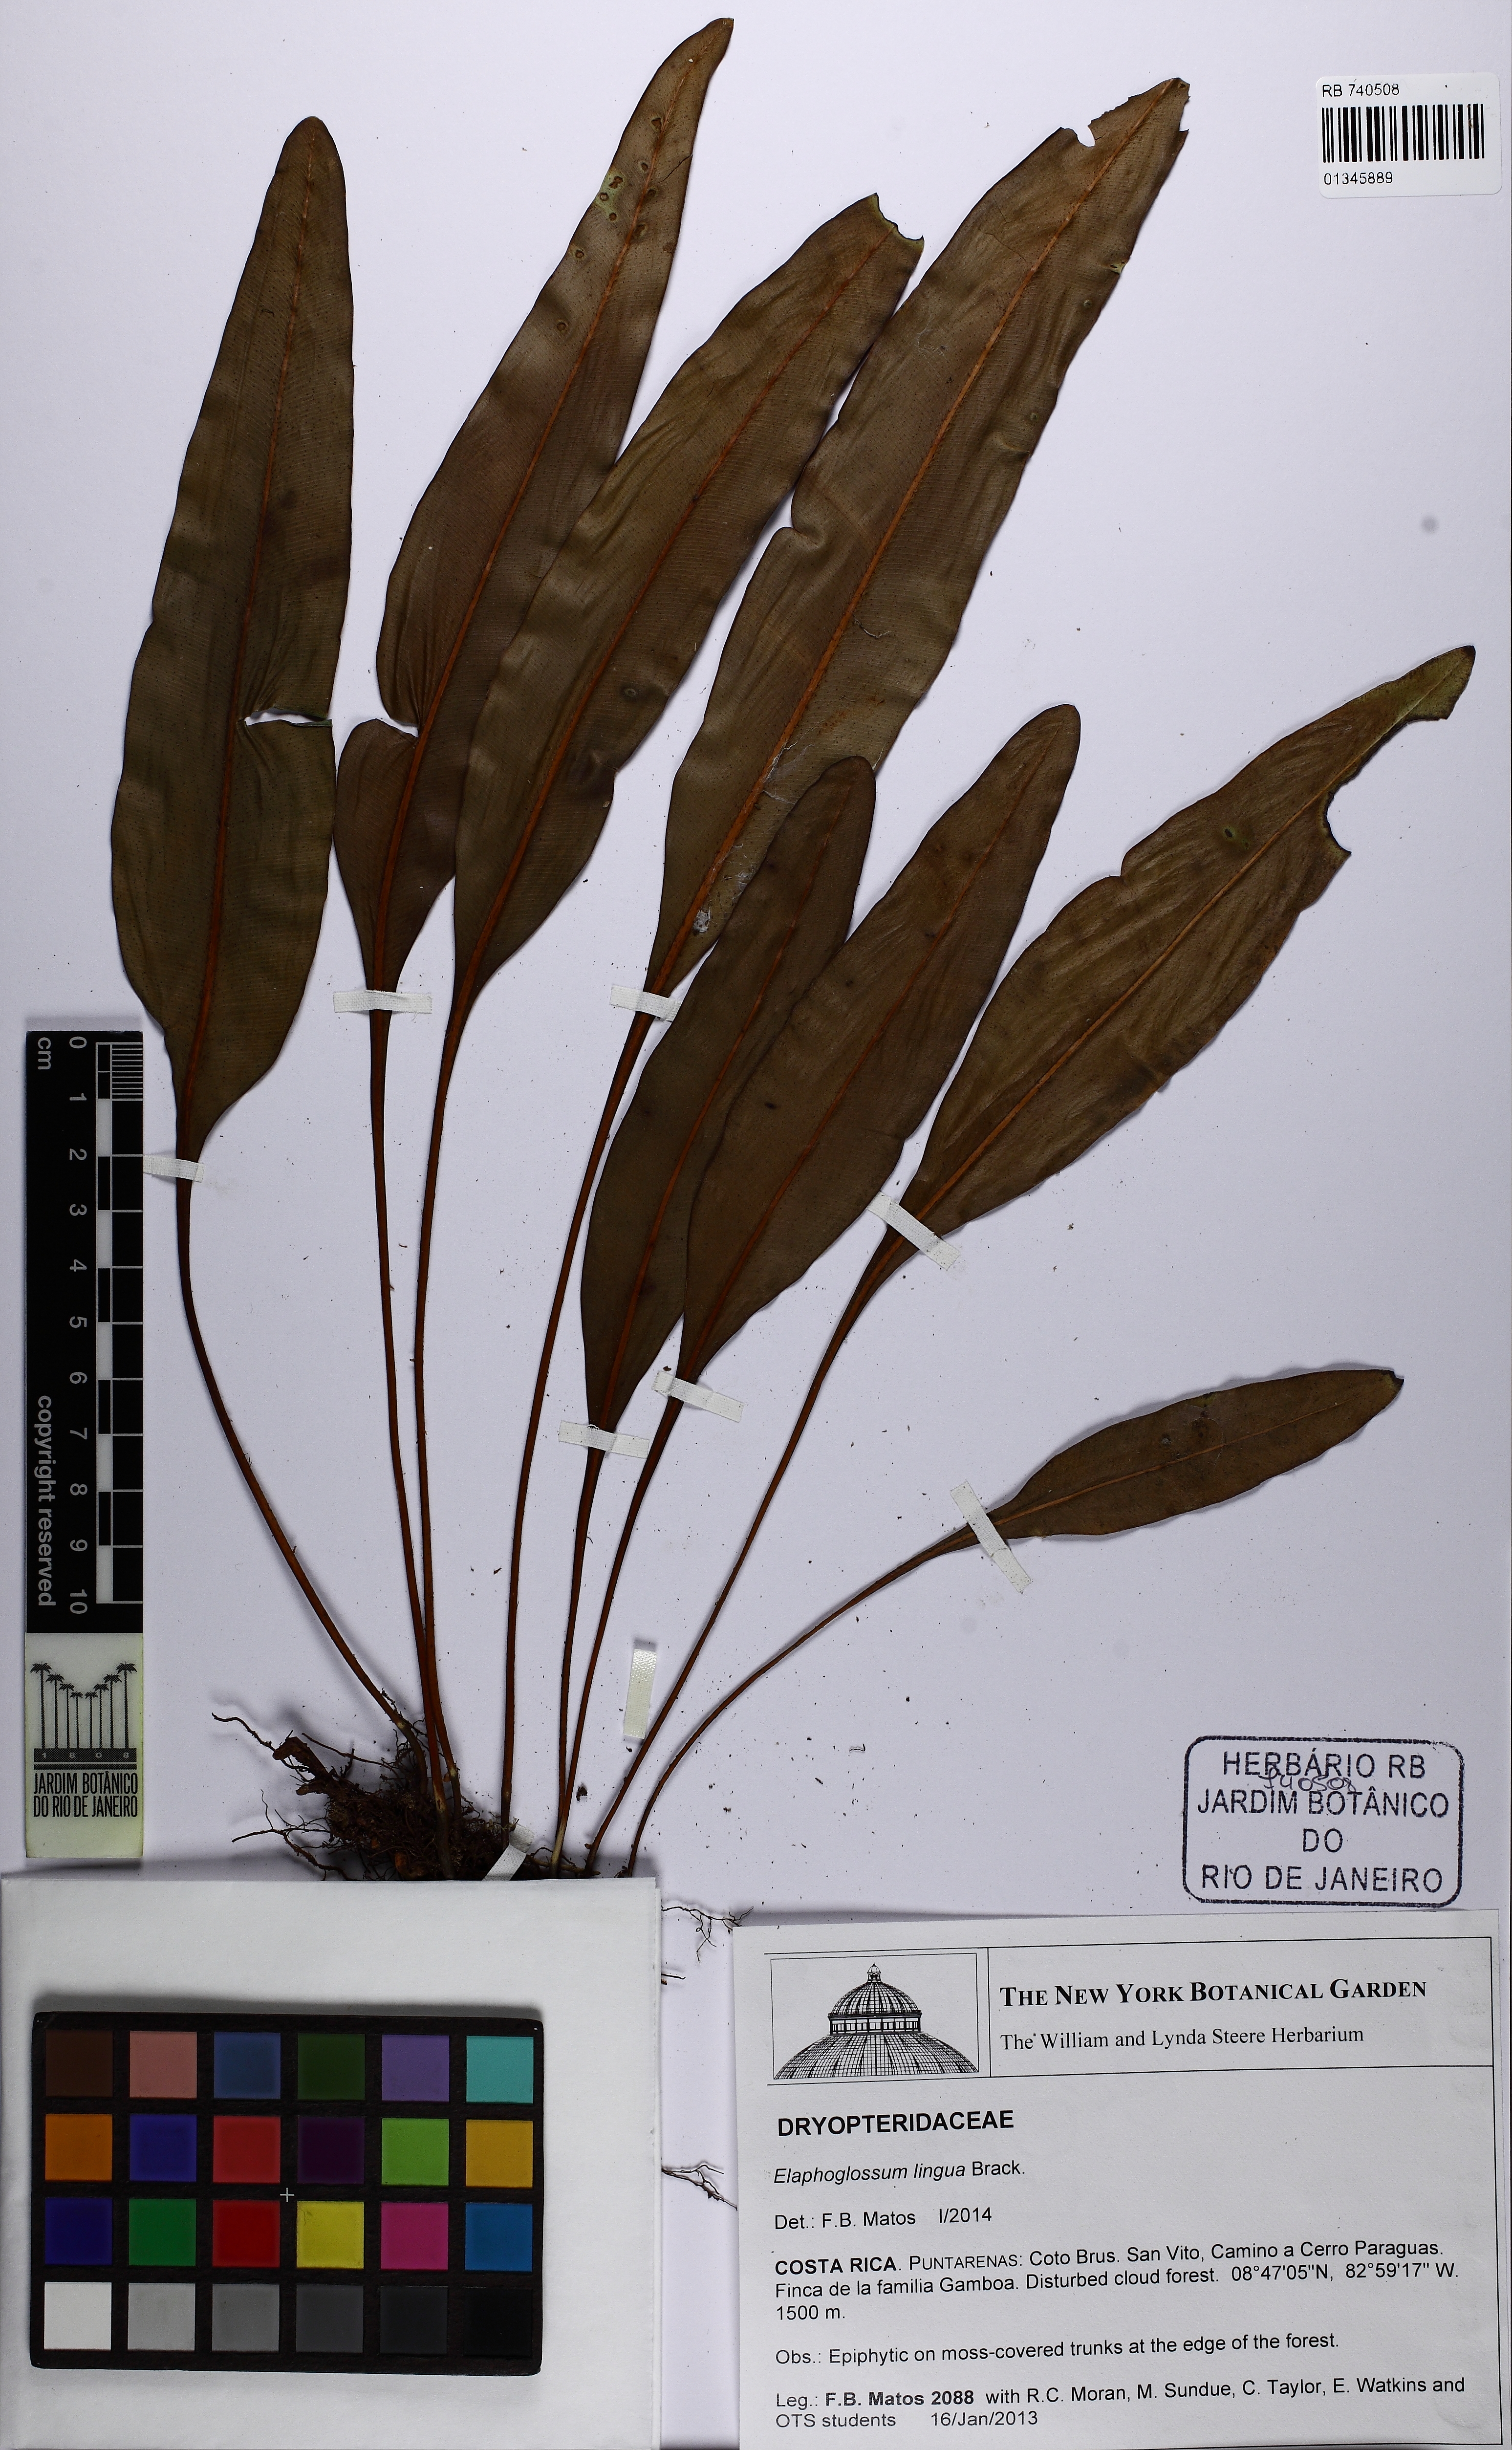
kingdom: Plantae
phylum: Tracheophyta
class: Polypodiopsida
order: Polypodiales
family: Dryopteridaceae
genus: Elaphoglossum
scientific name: Elaphoglossum lingua
